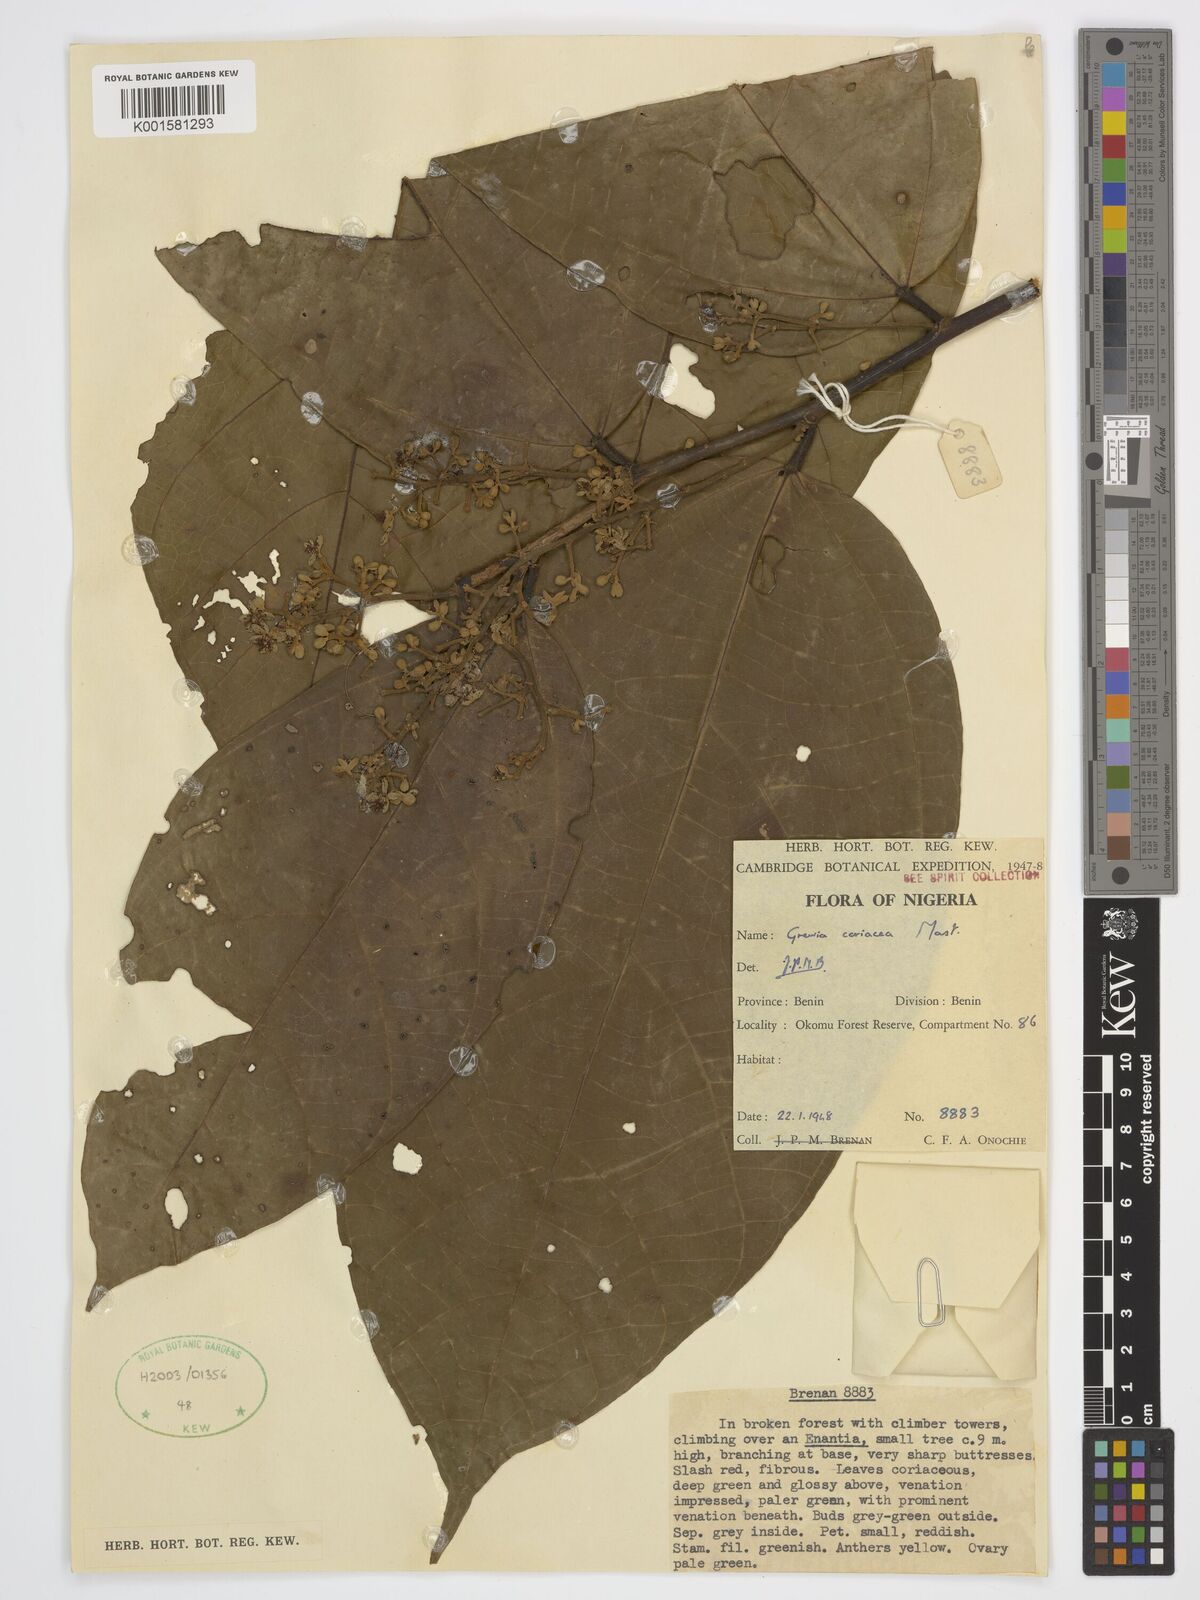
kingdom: Plantae
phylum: Tracheophyta
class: Magnoliopsida
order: Malvales
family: Malvaceae
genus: Microcos
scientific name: Microcos coriacea
